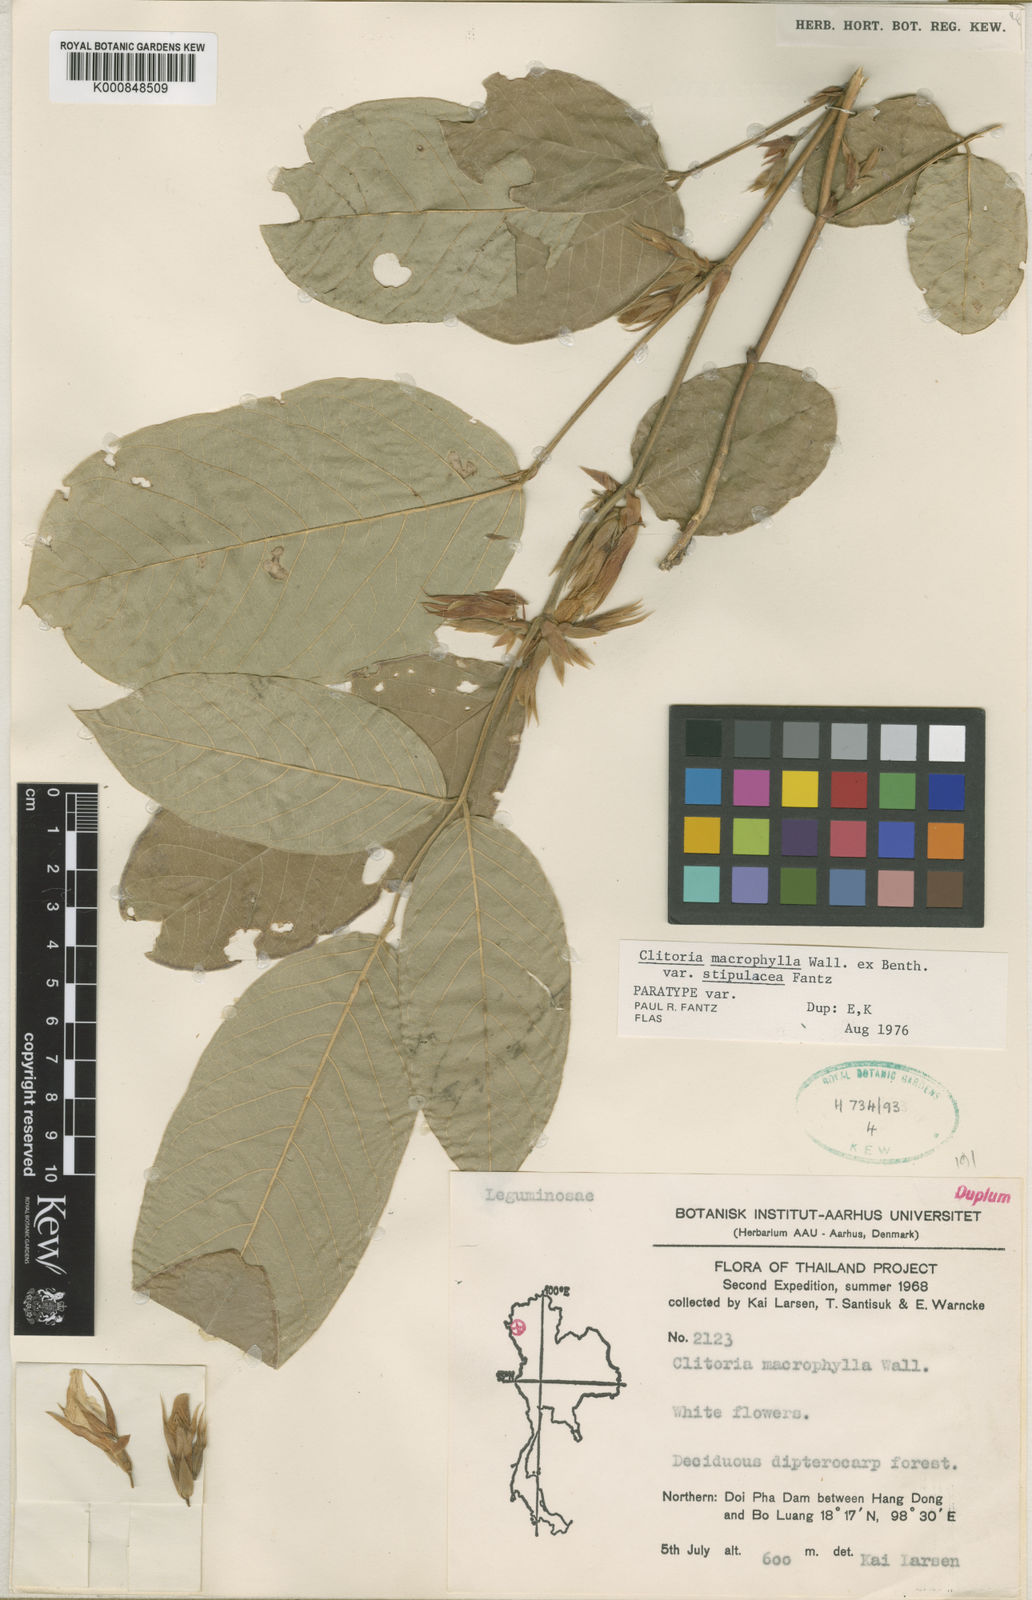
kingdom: Plantae
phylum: Tracheophyta
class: Magnoliopsida
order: Fabales
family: Fabaceae
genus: Clitoria
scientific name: Clitoria macrophylla
